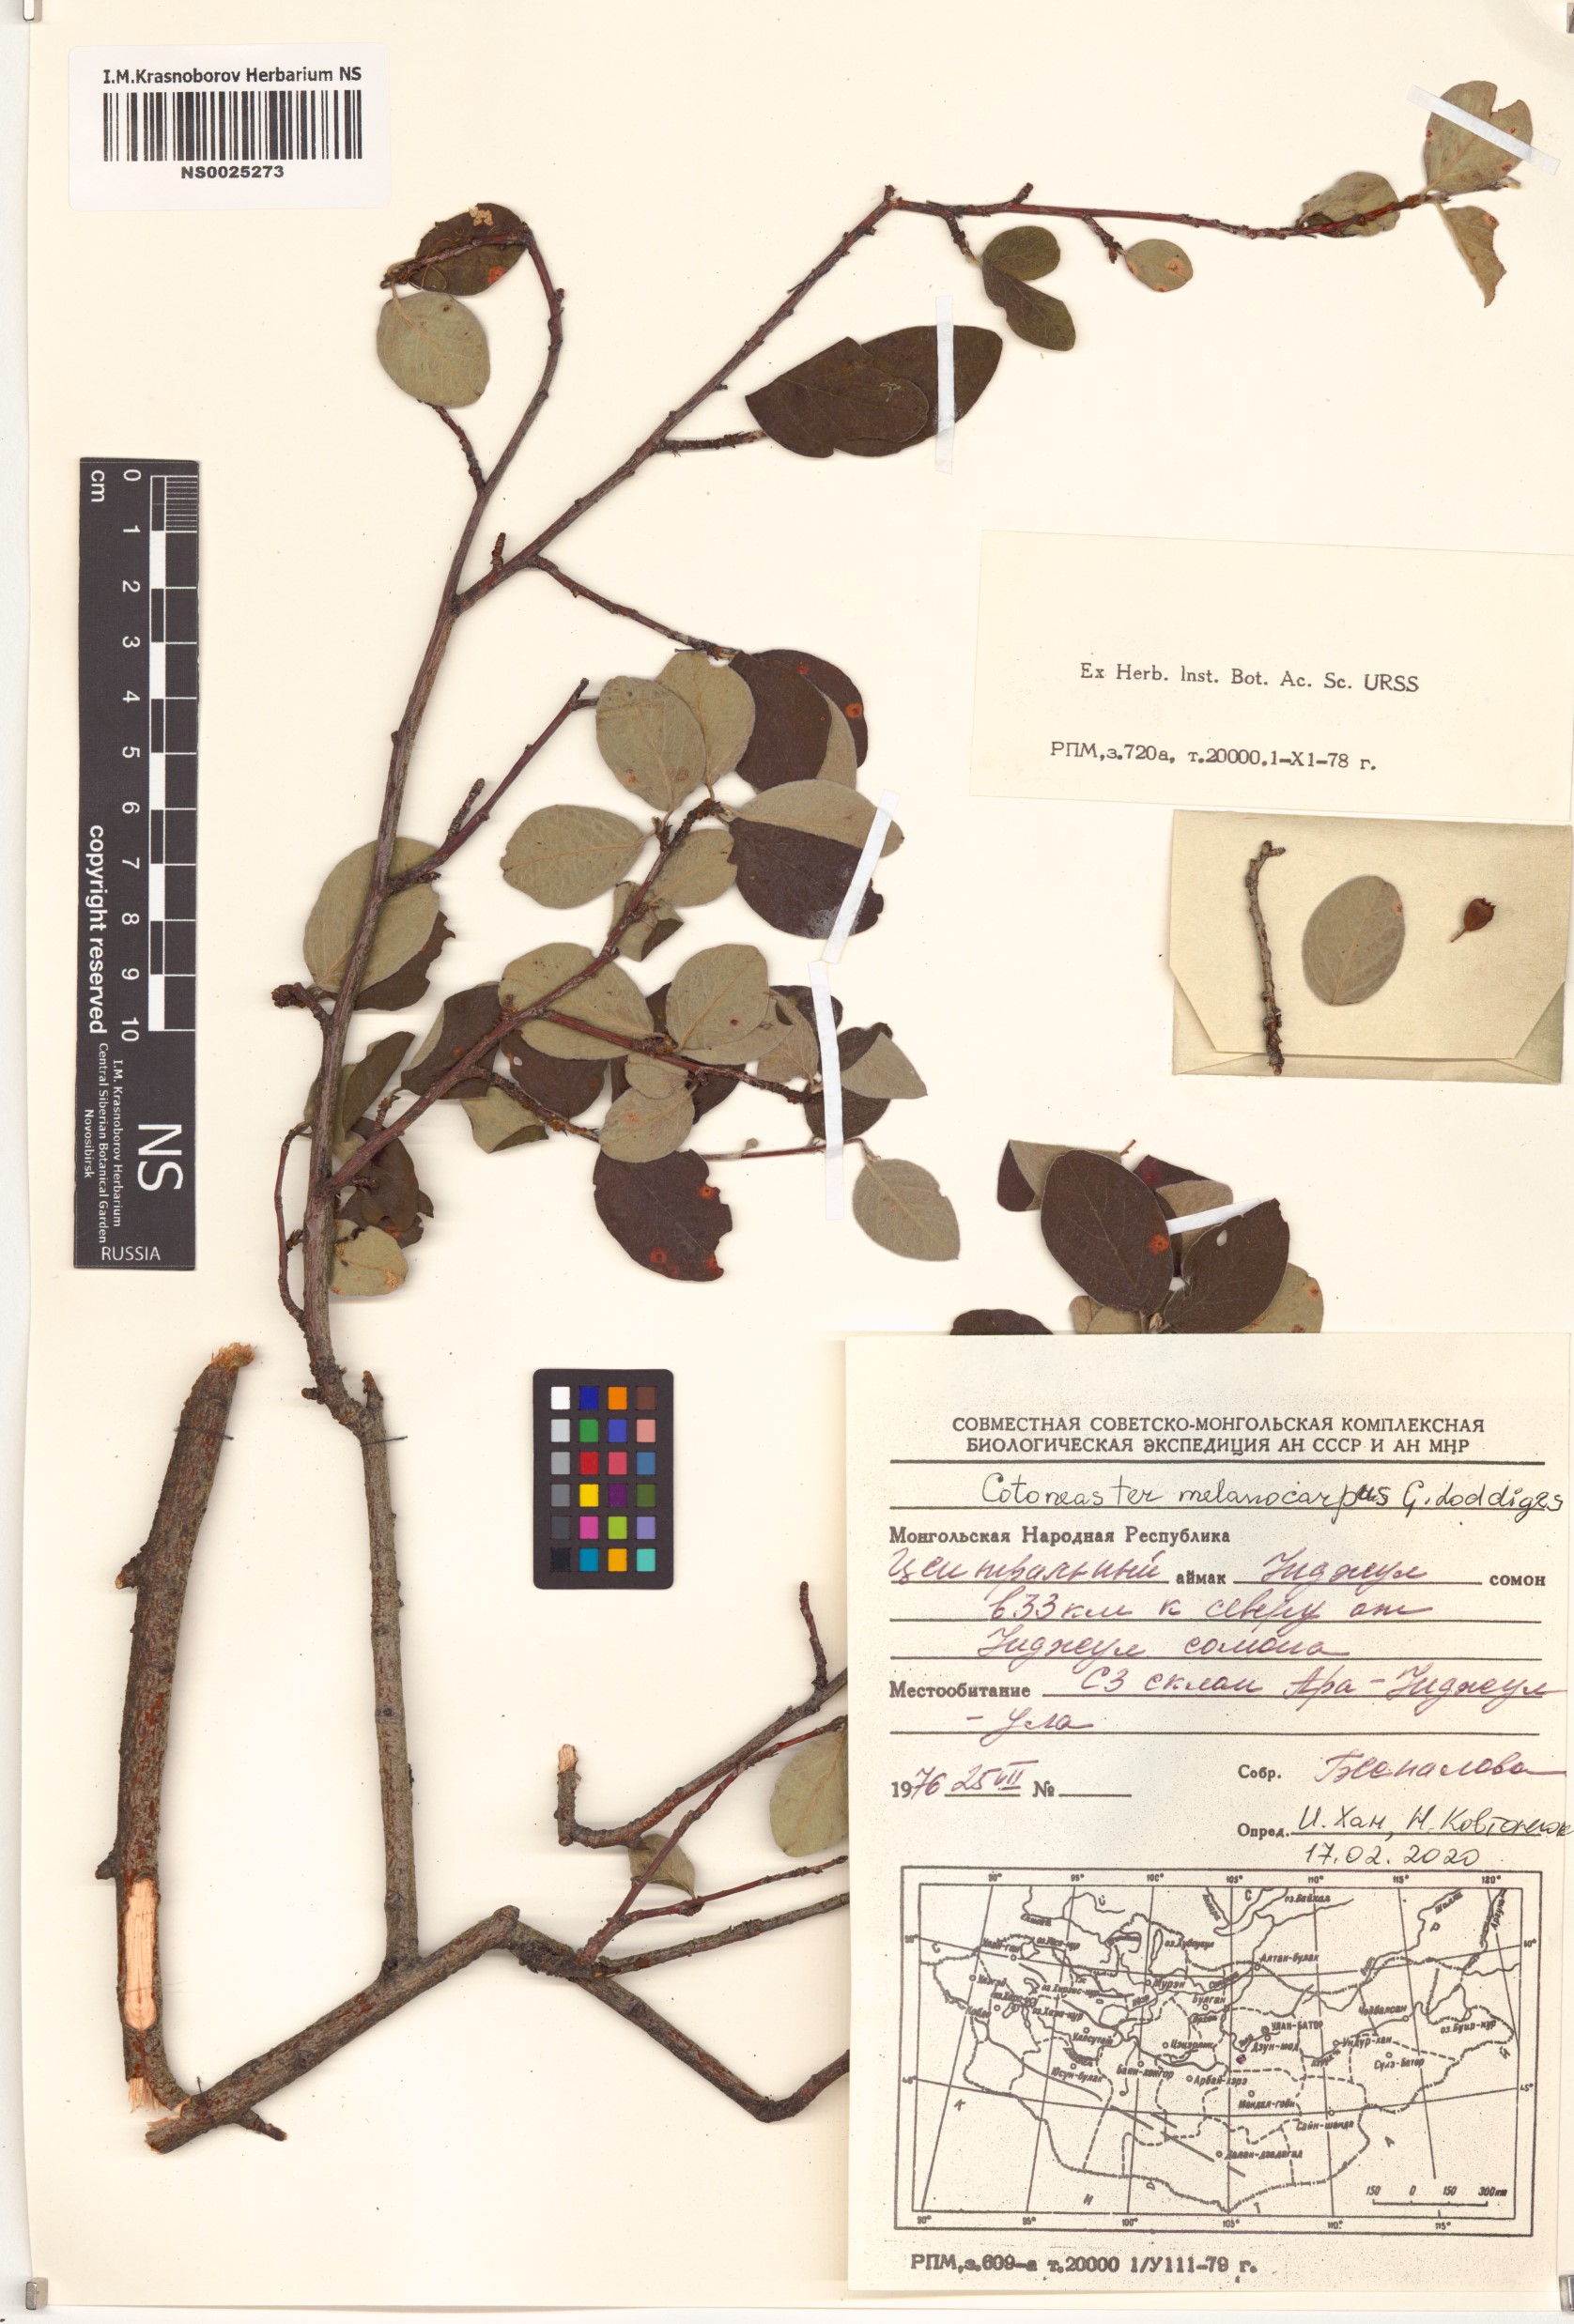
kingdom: Plantae
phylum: Tracheophyta
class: Magnoliopsida
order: Rosales
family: Rosaceae
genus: Cotoneaster
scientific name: Cotoneaster melanocarpus
